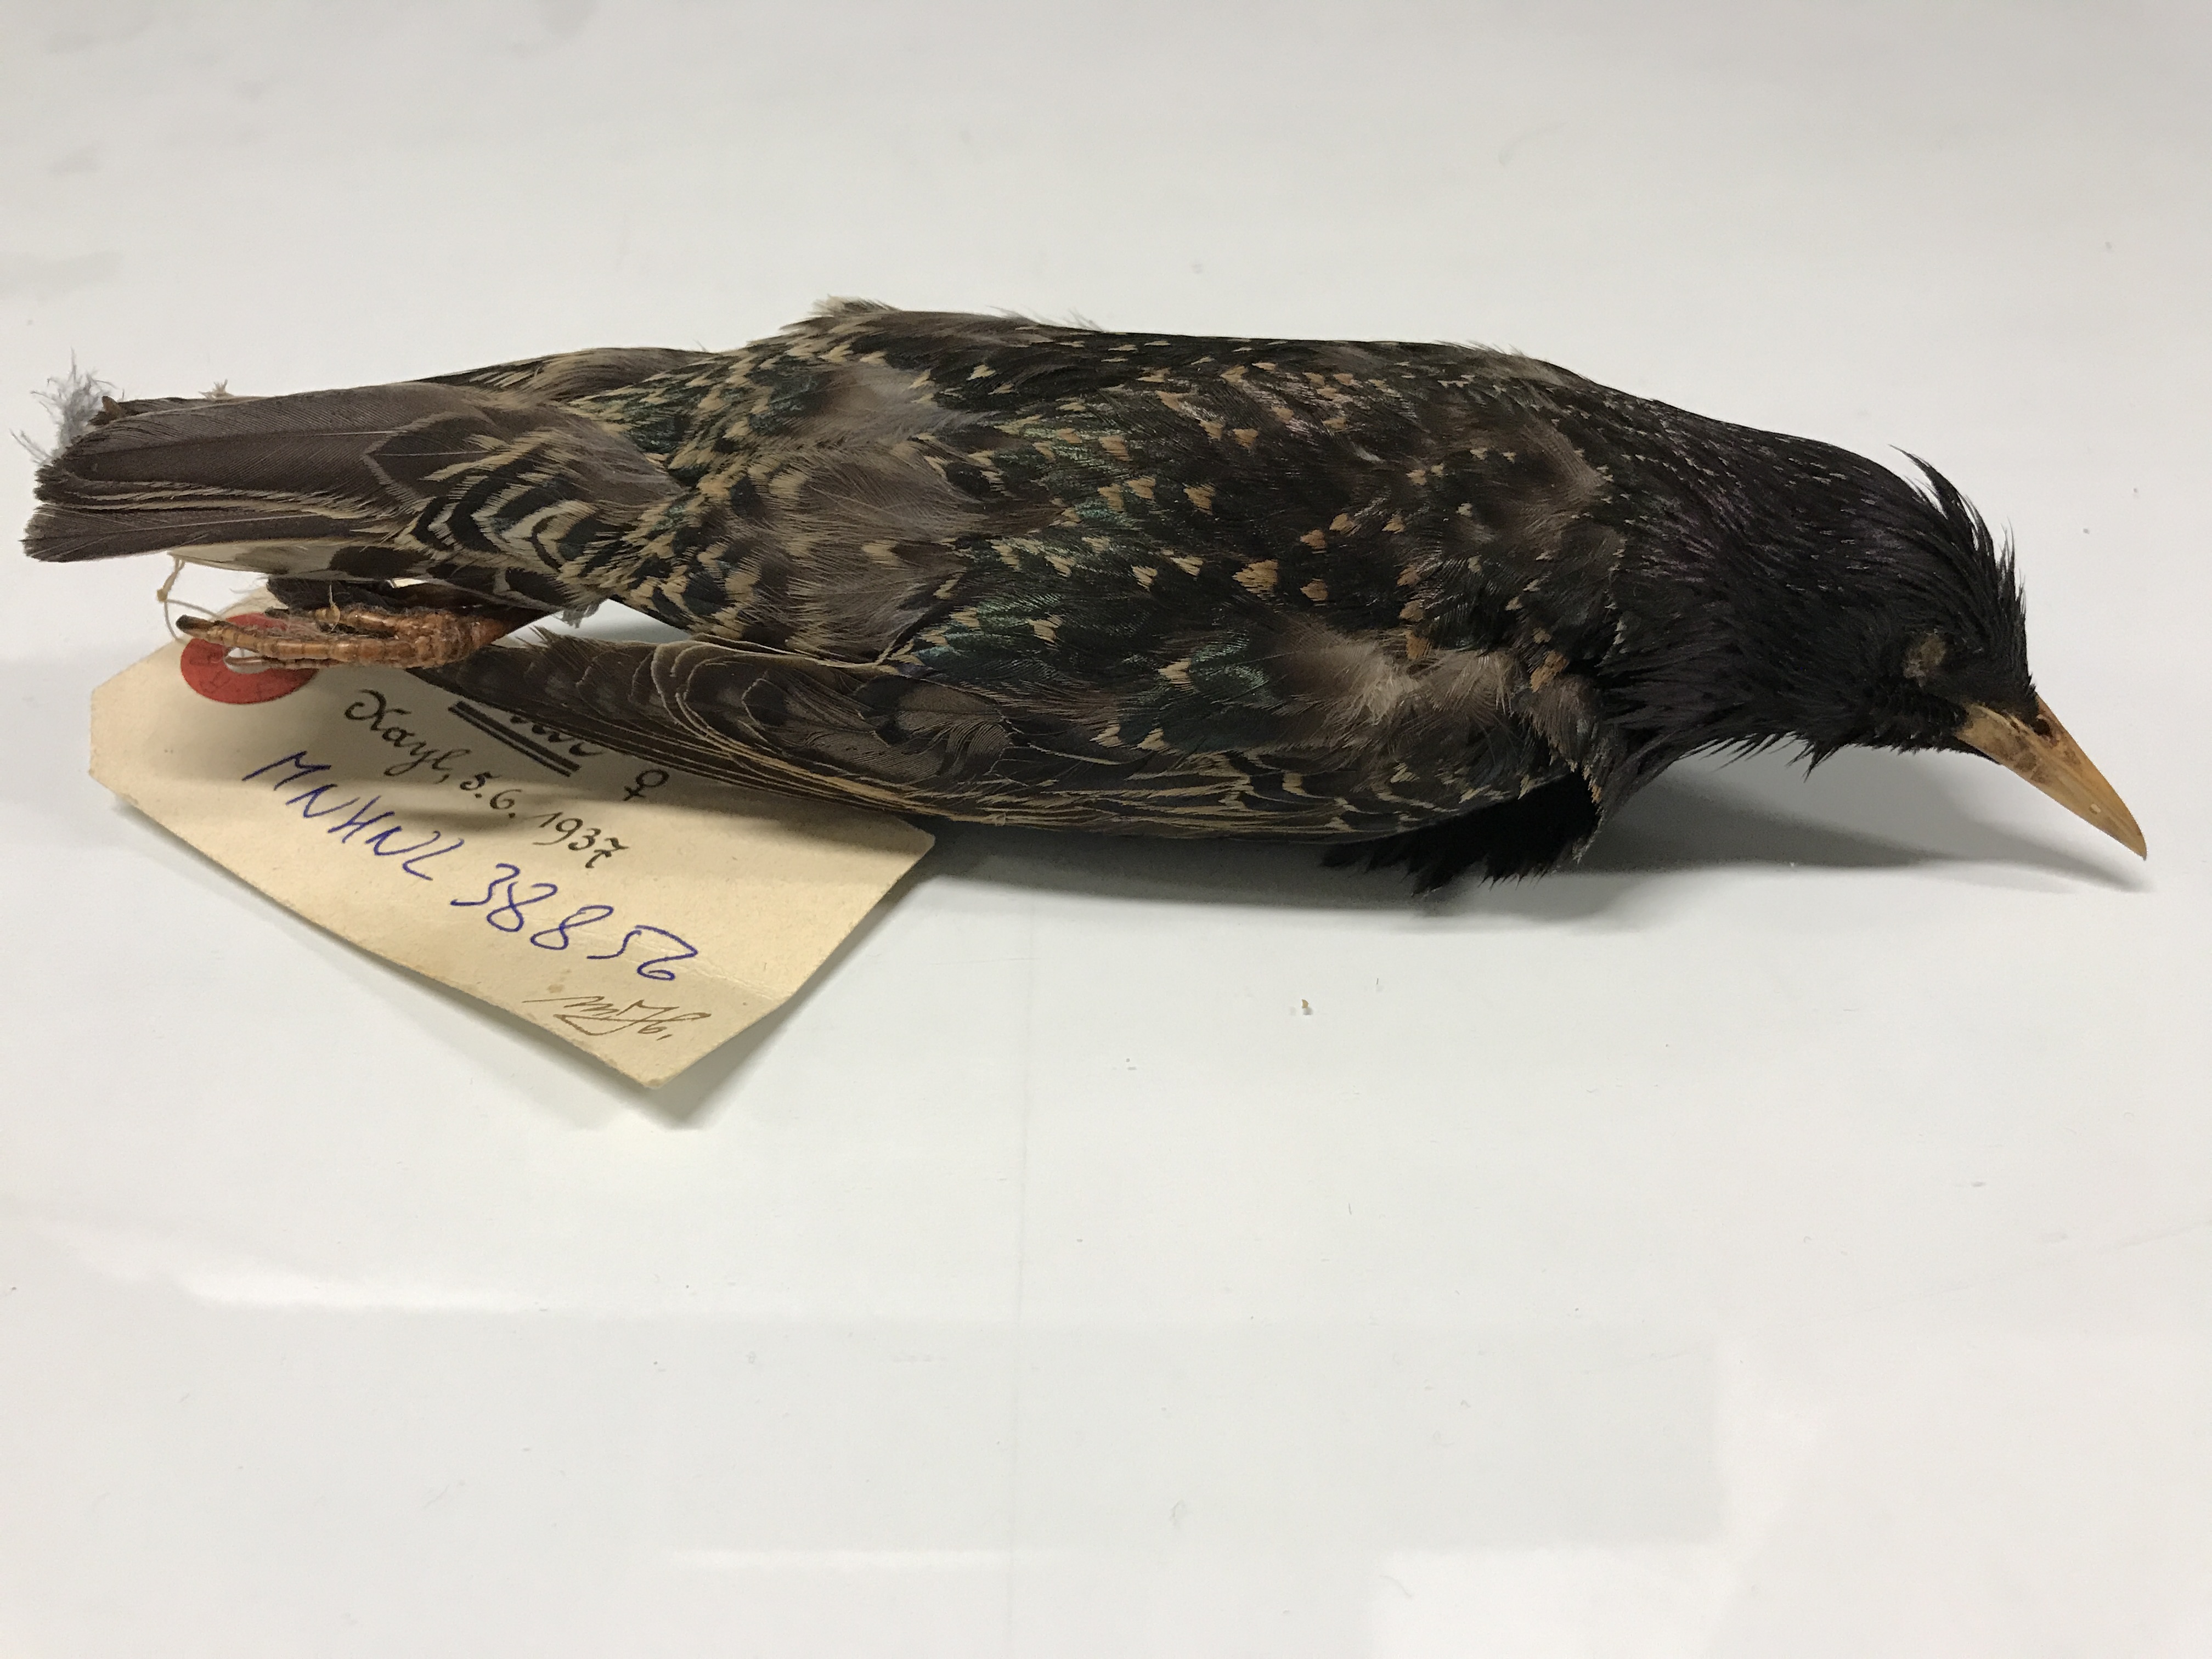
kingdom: Animalia
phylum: Chordata
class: Aves
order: Passeriformes
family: Sturnidae
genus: Sturnus
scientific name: Sturnus vulgaris
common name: Common starling
